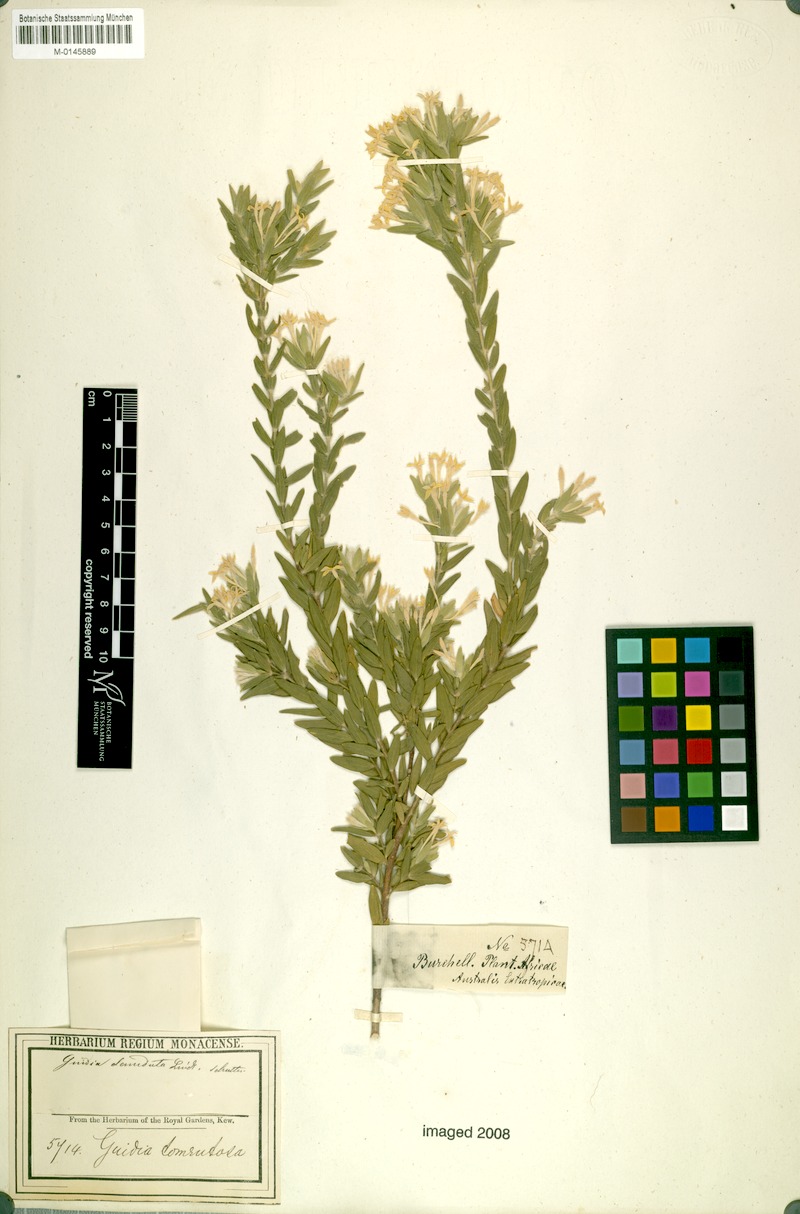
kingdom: Plantae
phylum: Tracheophyta
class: Magnoliopsida
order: Malvales
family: Thymelaeaceae
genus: Gnidia
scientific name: Gnidia tomentosa
